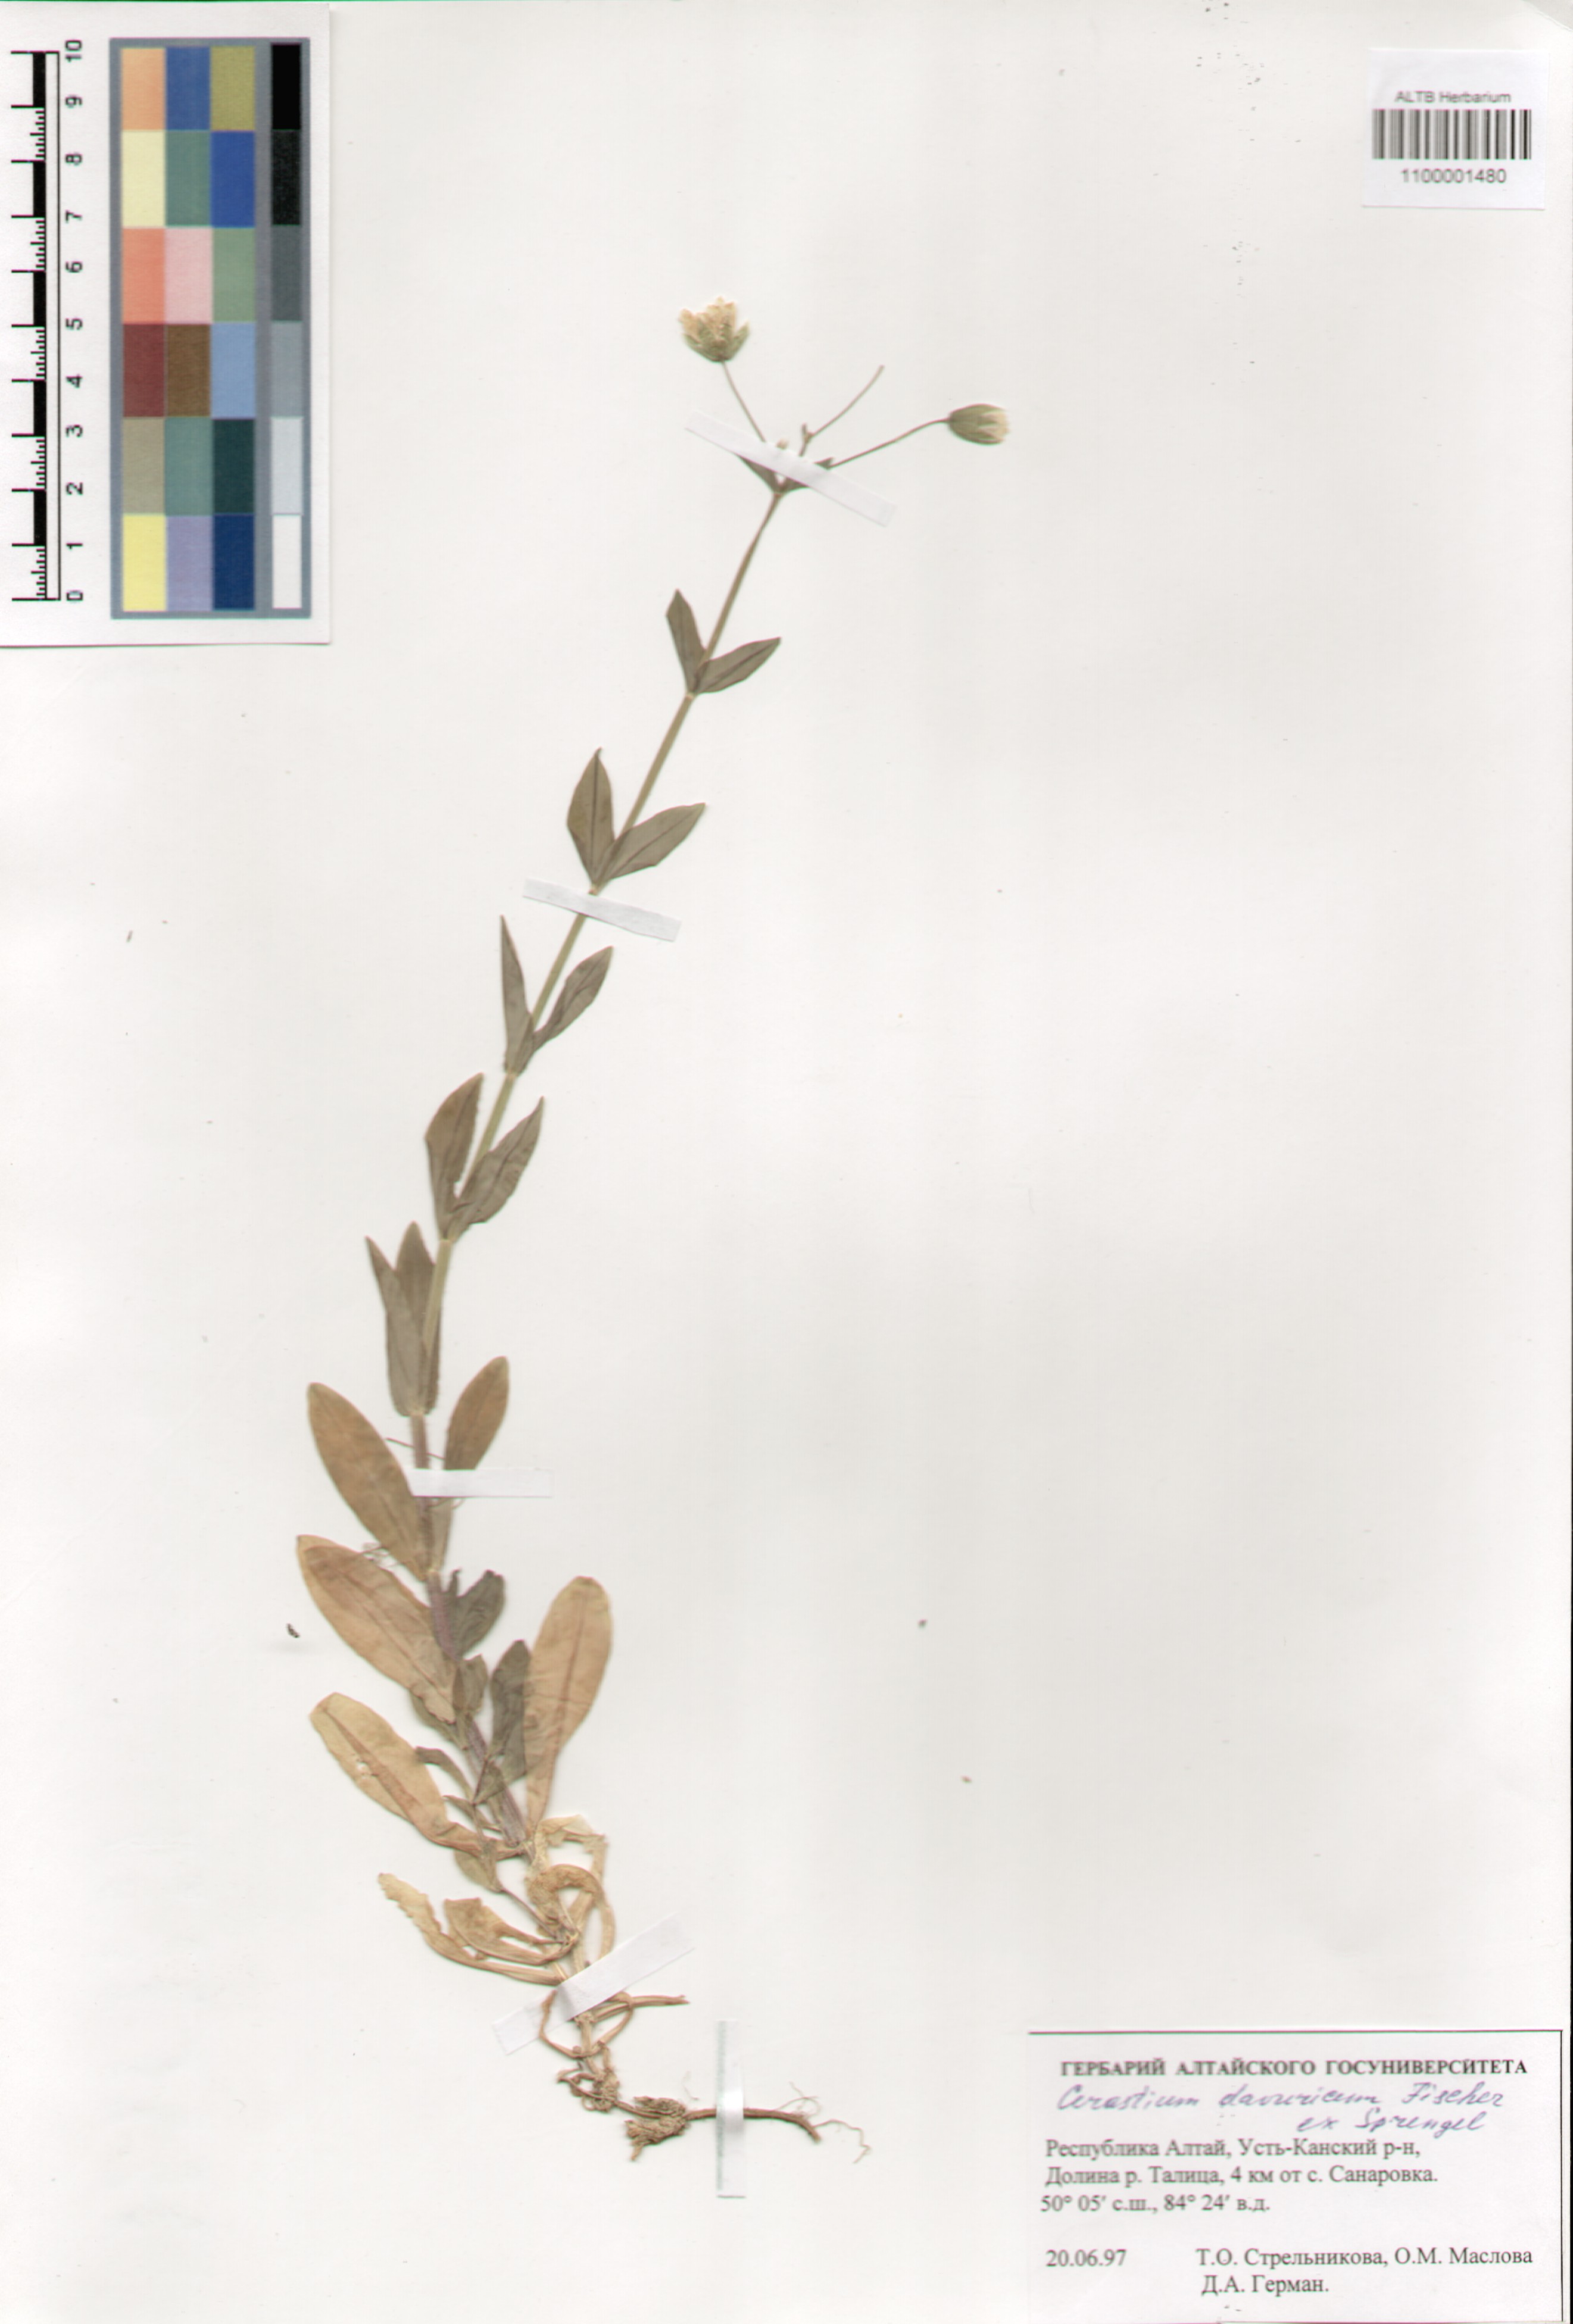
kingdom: Plantae
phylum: Tracheophyta
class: Magnoliopsida
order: Caryophyllales
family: Caryophyllaceae
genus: Dichodon
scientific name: Dichodon davuricum
